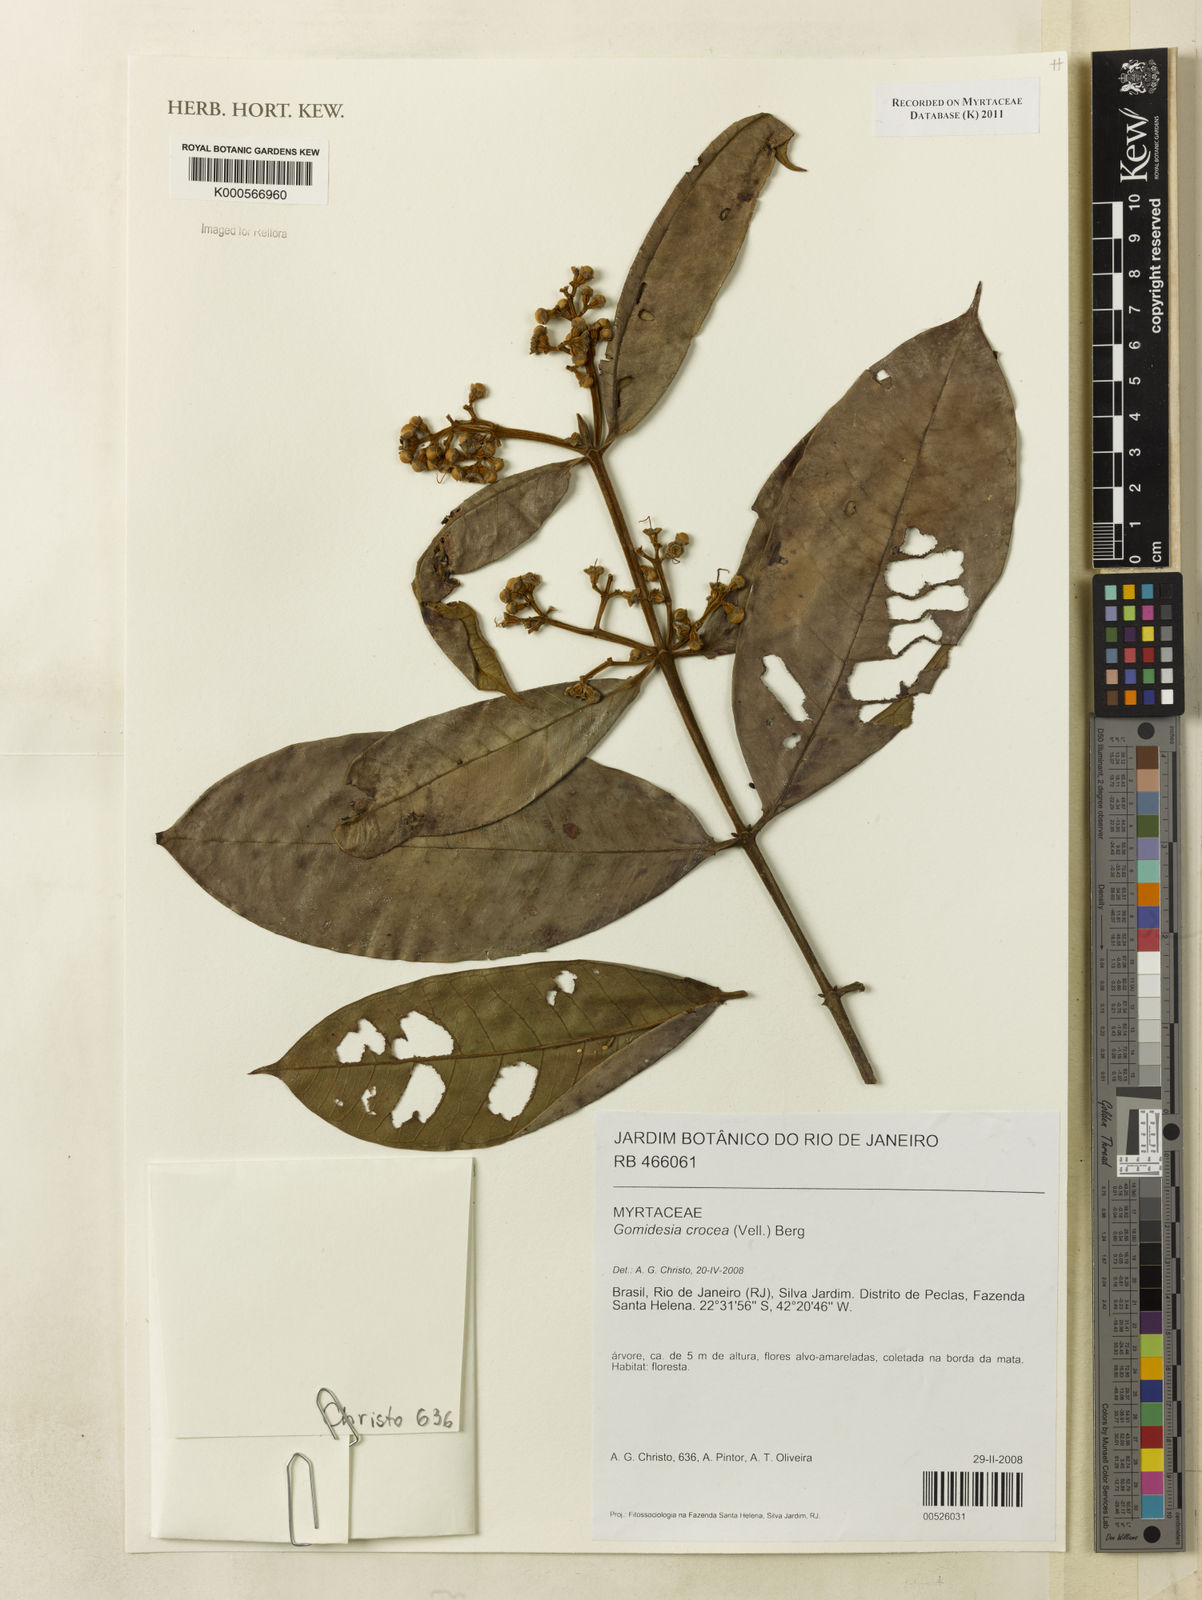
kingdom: Plantae
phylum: Tracheophyta
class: Magnoliopsida
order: Myrtales
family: Myrtaceae
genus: Myrcia
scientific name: Myrcia amplexicaulis
